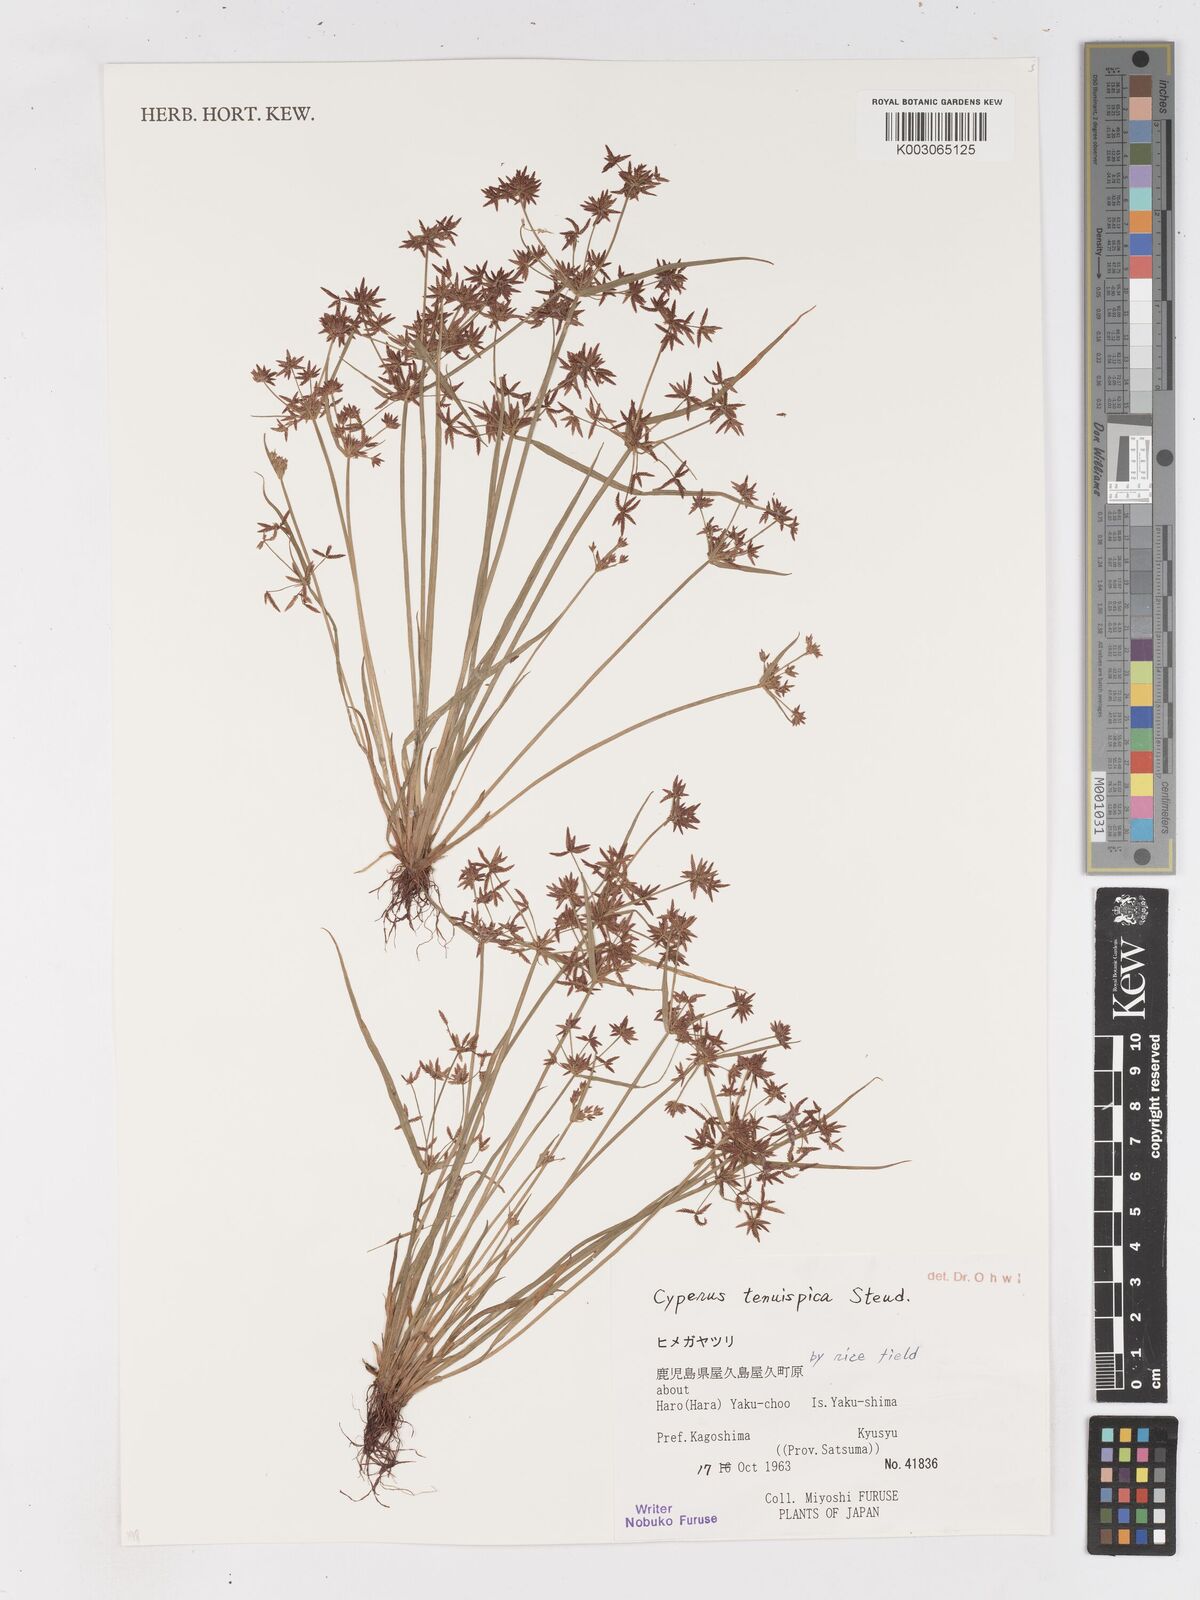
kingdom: Plantae
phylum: Tracheophyta
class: Liliopsida
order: Poales
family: Cyperaceae
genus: Cyperus
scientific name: Cyperus tenuispica
